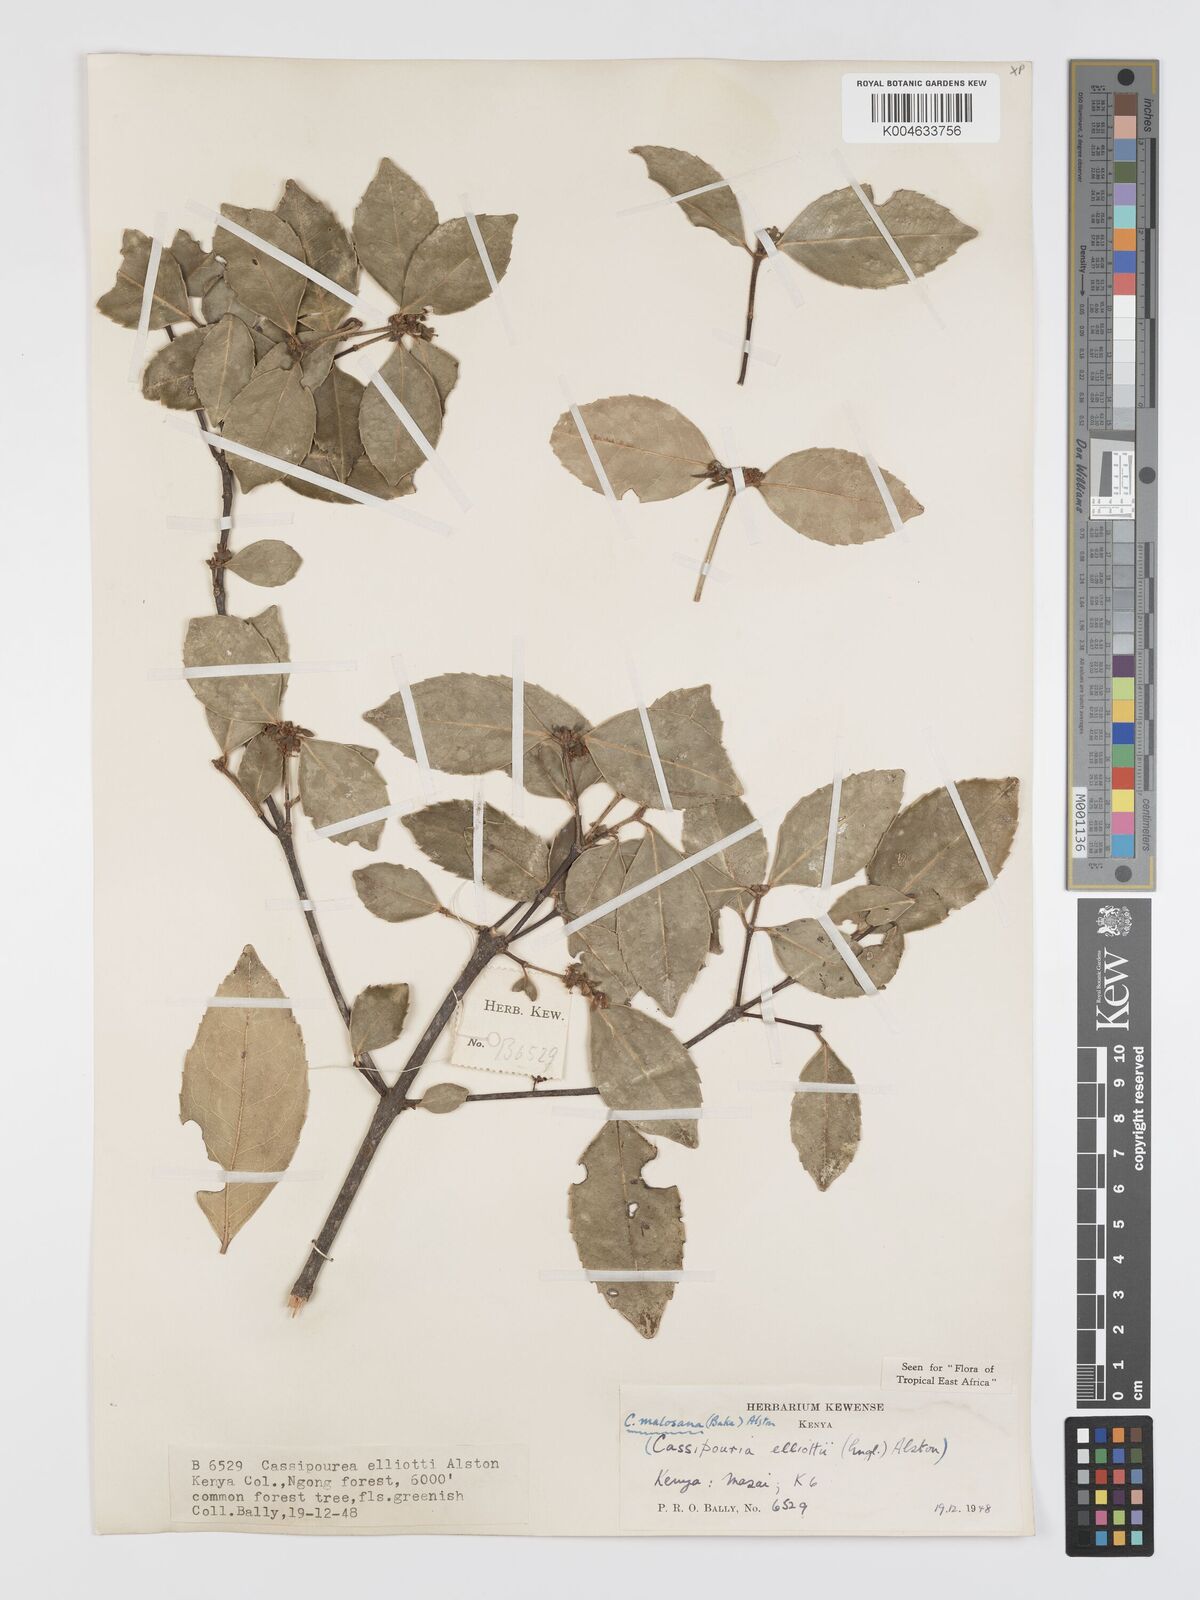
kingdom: Plantae
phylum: Tracheophyta
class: Magnoliopsida
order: Malpighiales
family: Rhizophoraceae
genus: Cassipourea
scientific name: Cassipourea
